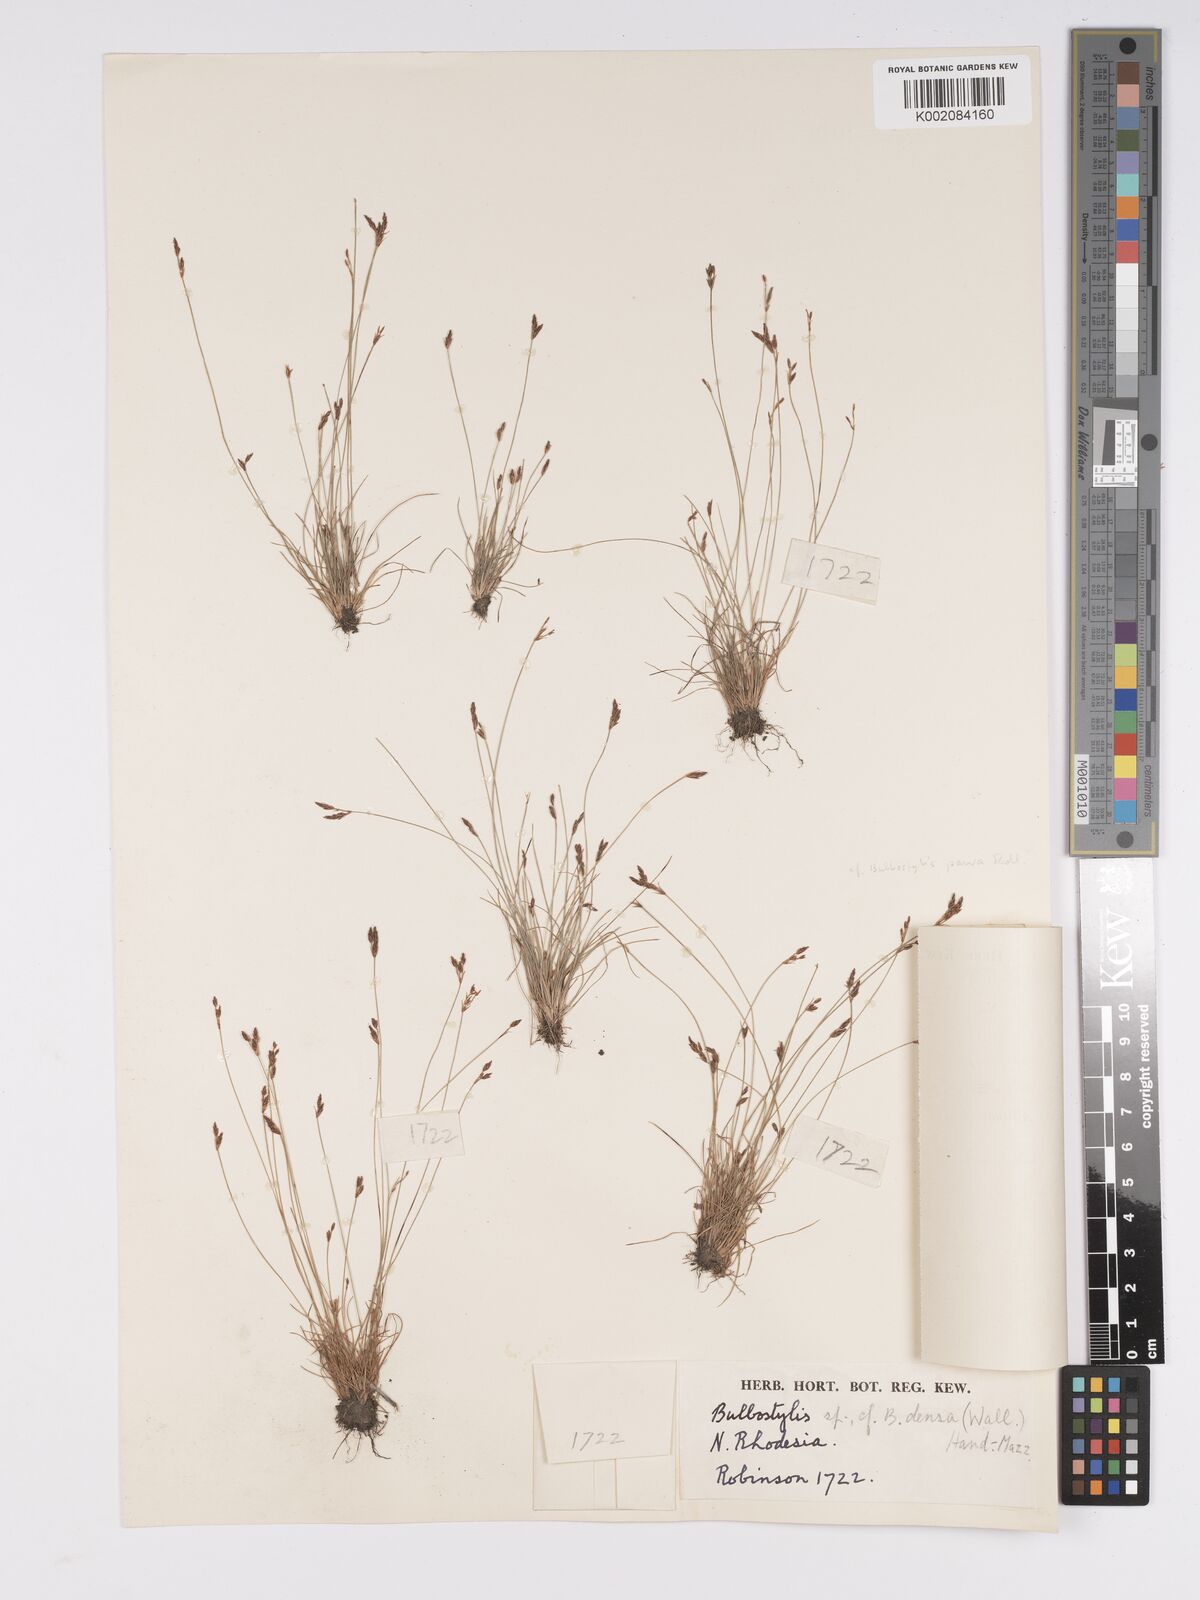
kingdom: Plantae
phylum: Tracheophyta
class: Liliopsida
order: Poales
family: Cyperaceae
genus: Bulbostylis
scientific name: Bulbostylis
